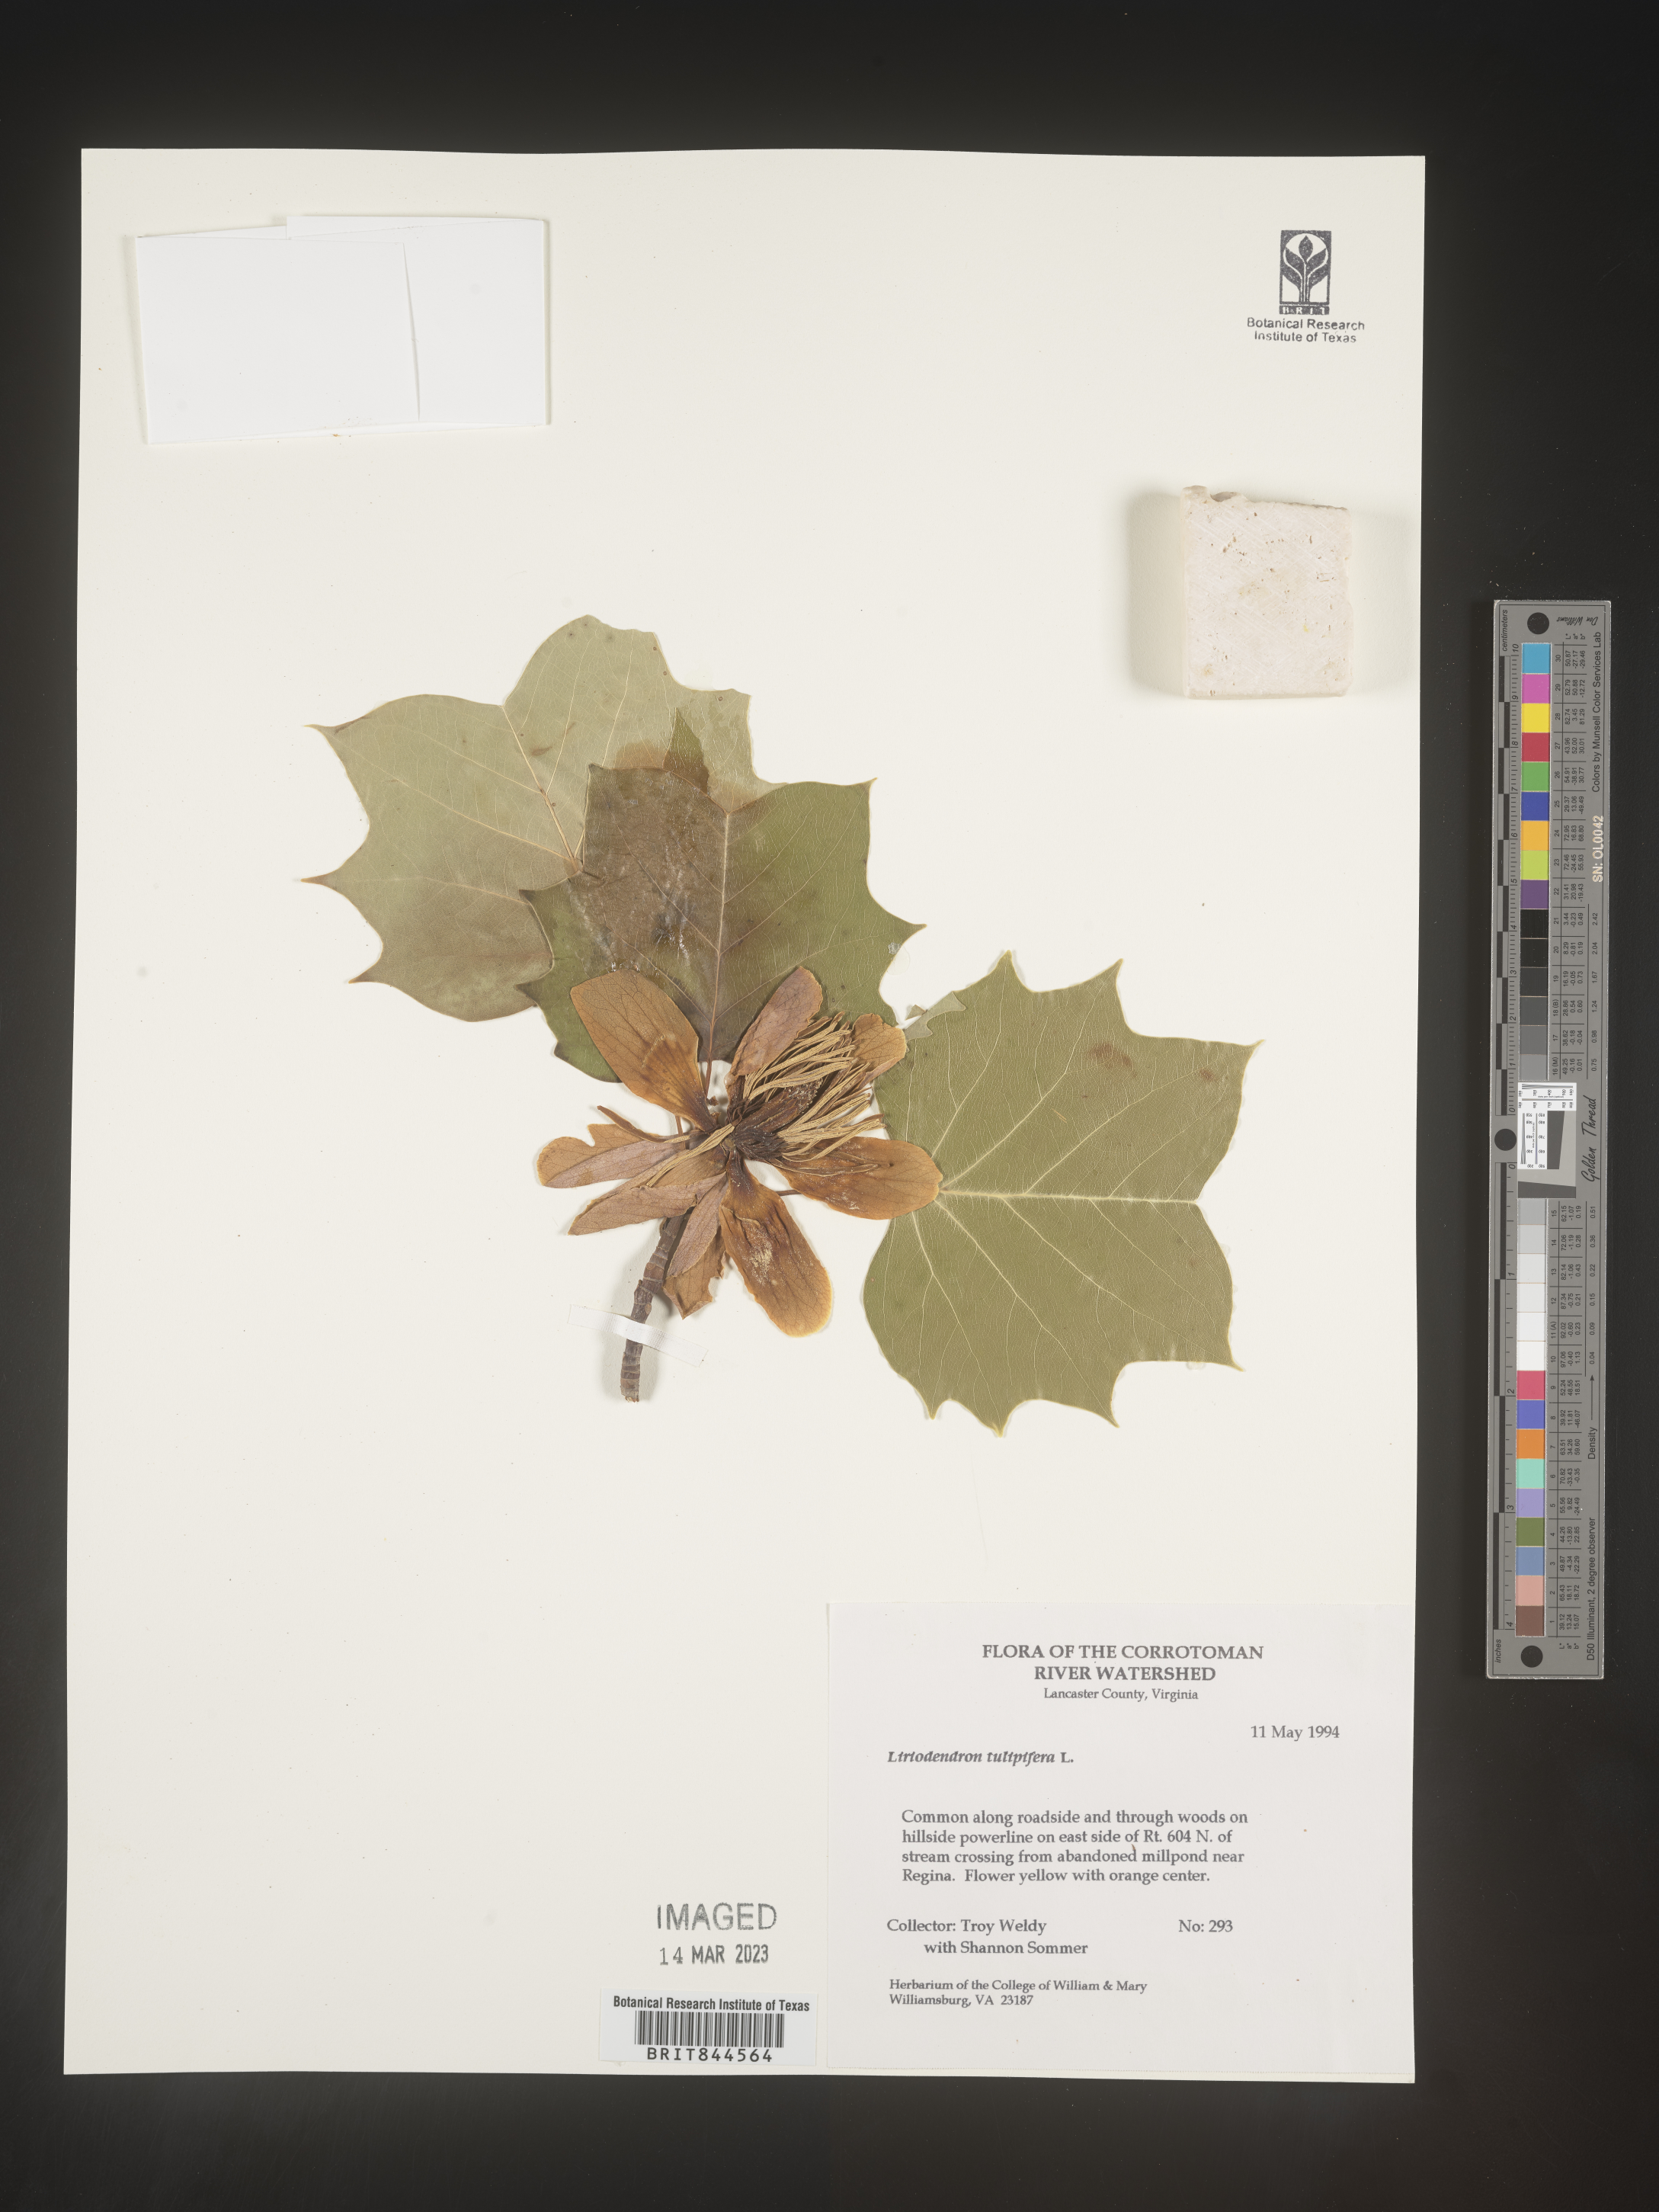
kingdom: Plantae
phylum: Tracheophyta
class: Magnoliopsida
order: Magnoliales
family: Magnoliaceae
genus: Liriodendron
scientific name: Liriodendron tulipifera
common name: Tulip tree
